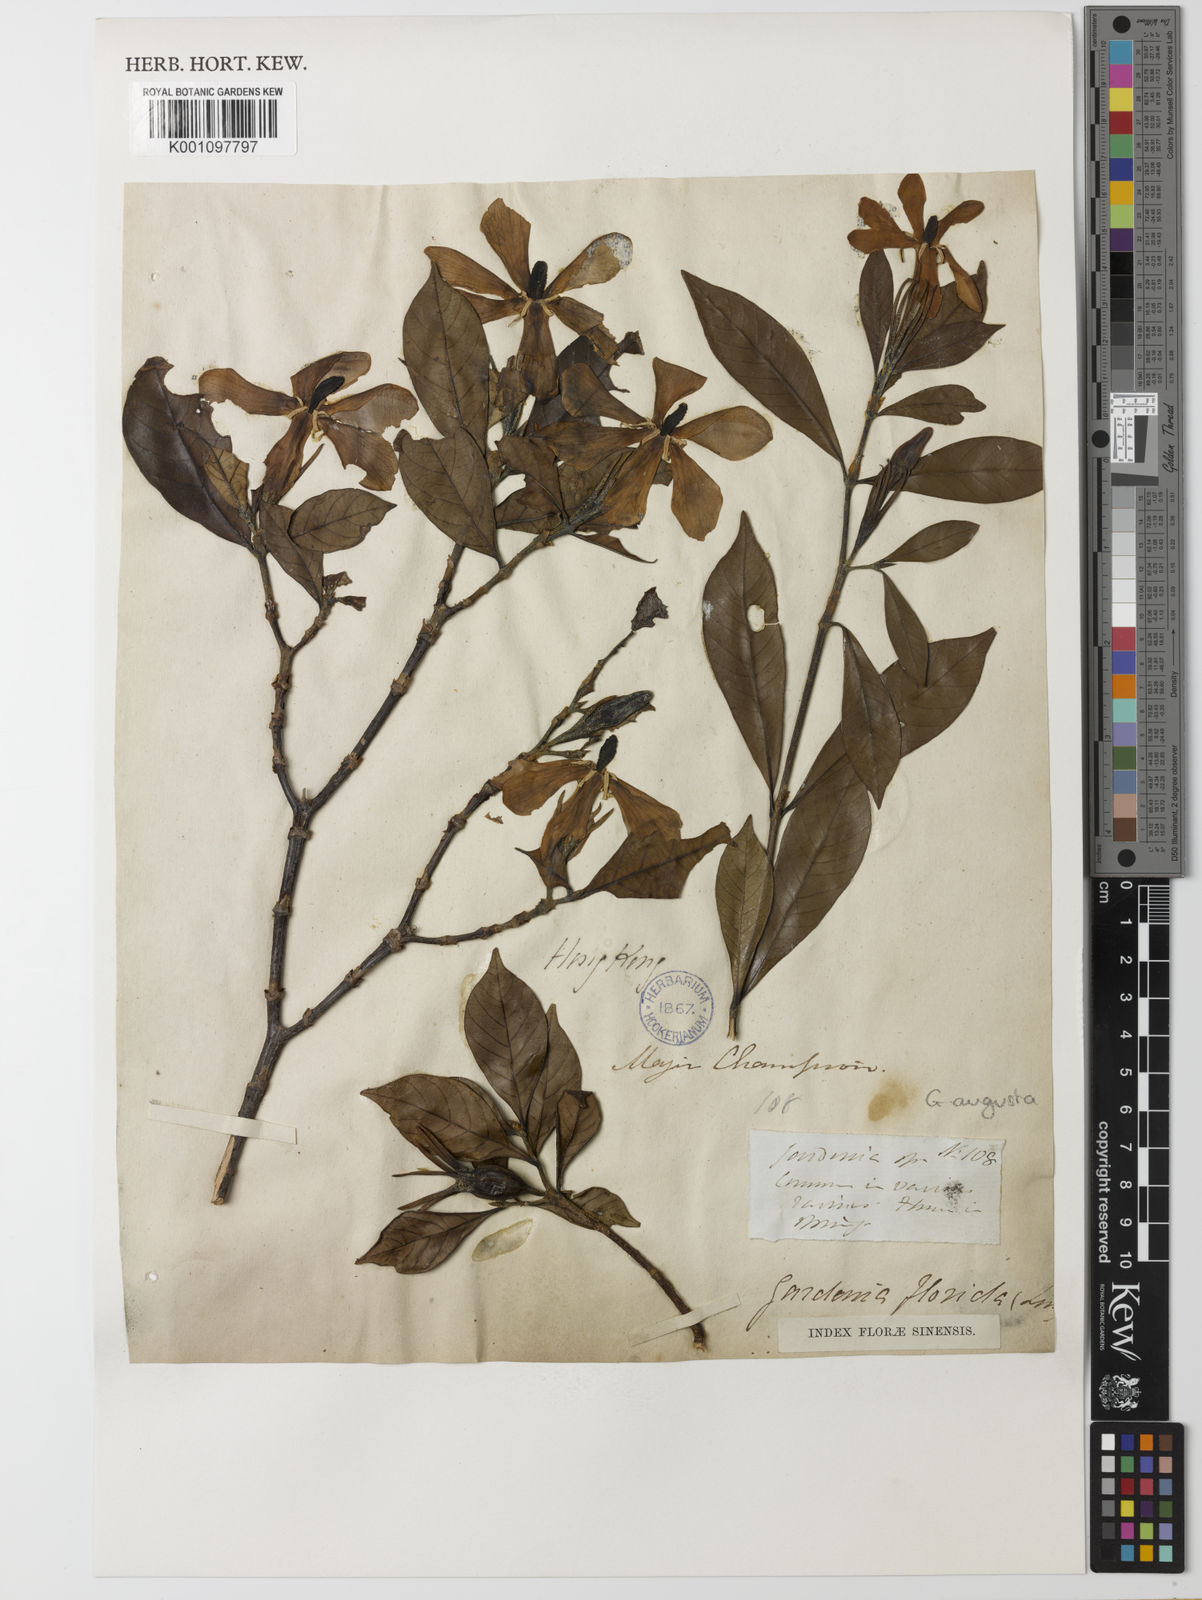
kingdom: Plantae
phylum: Tracheophyta
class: Magnoliopsida
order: Gentianales
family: Rubiaceae
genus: Gardenia
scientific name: Gardenia jasminoides
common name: Cape-jasmine
